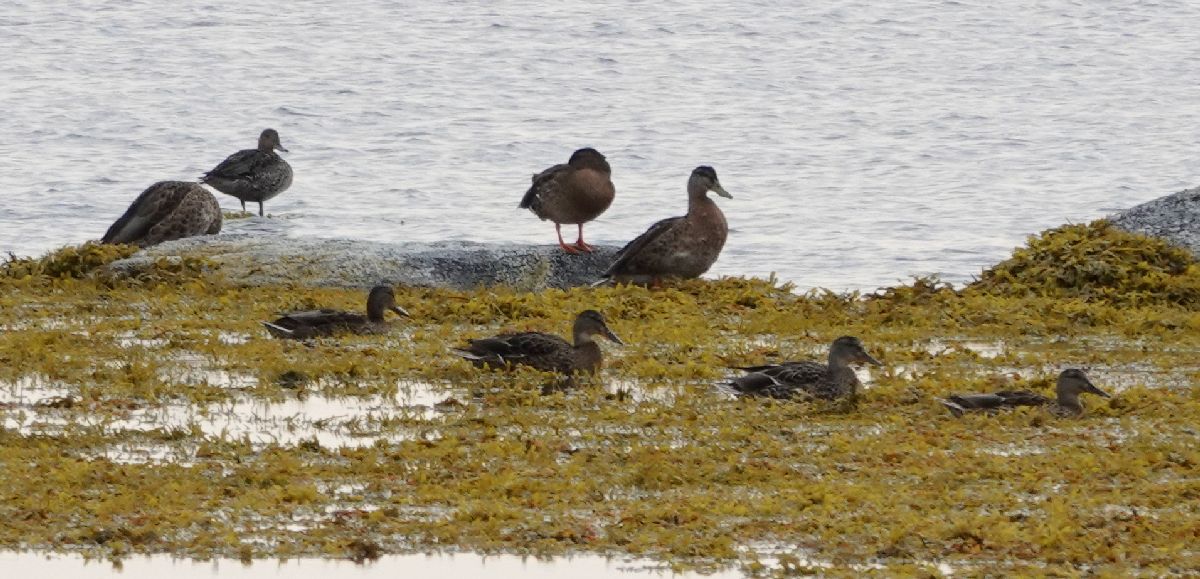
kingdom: Animalia
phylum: Chordata
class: Aves
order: Anseriformes
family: Anatidae
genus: Anas
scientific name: Anas platyrhynchos
